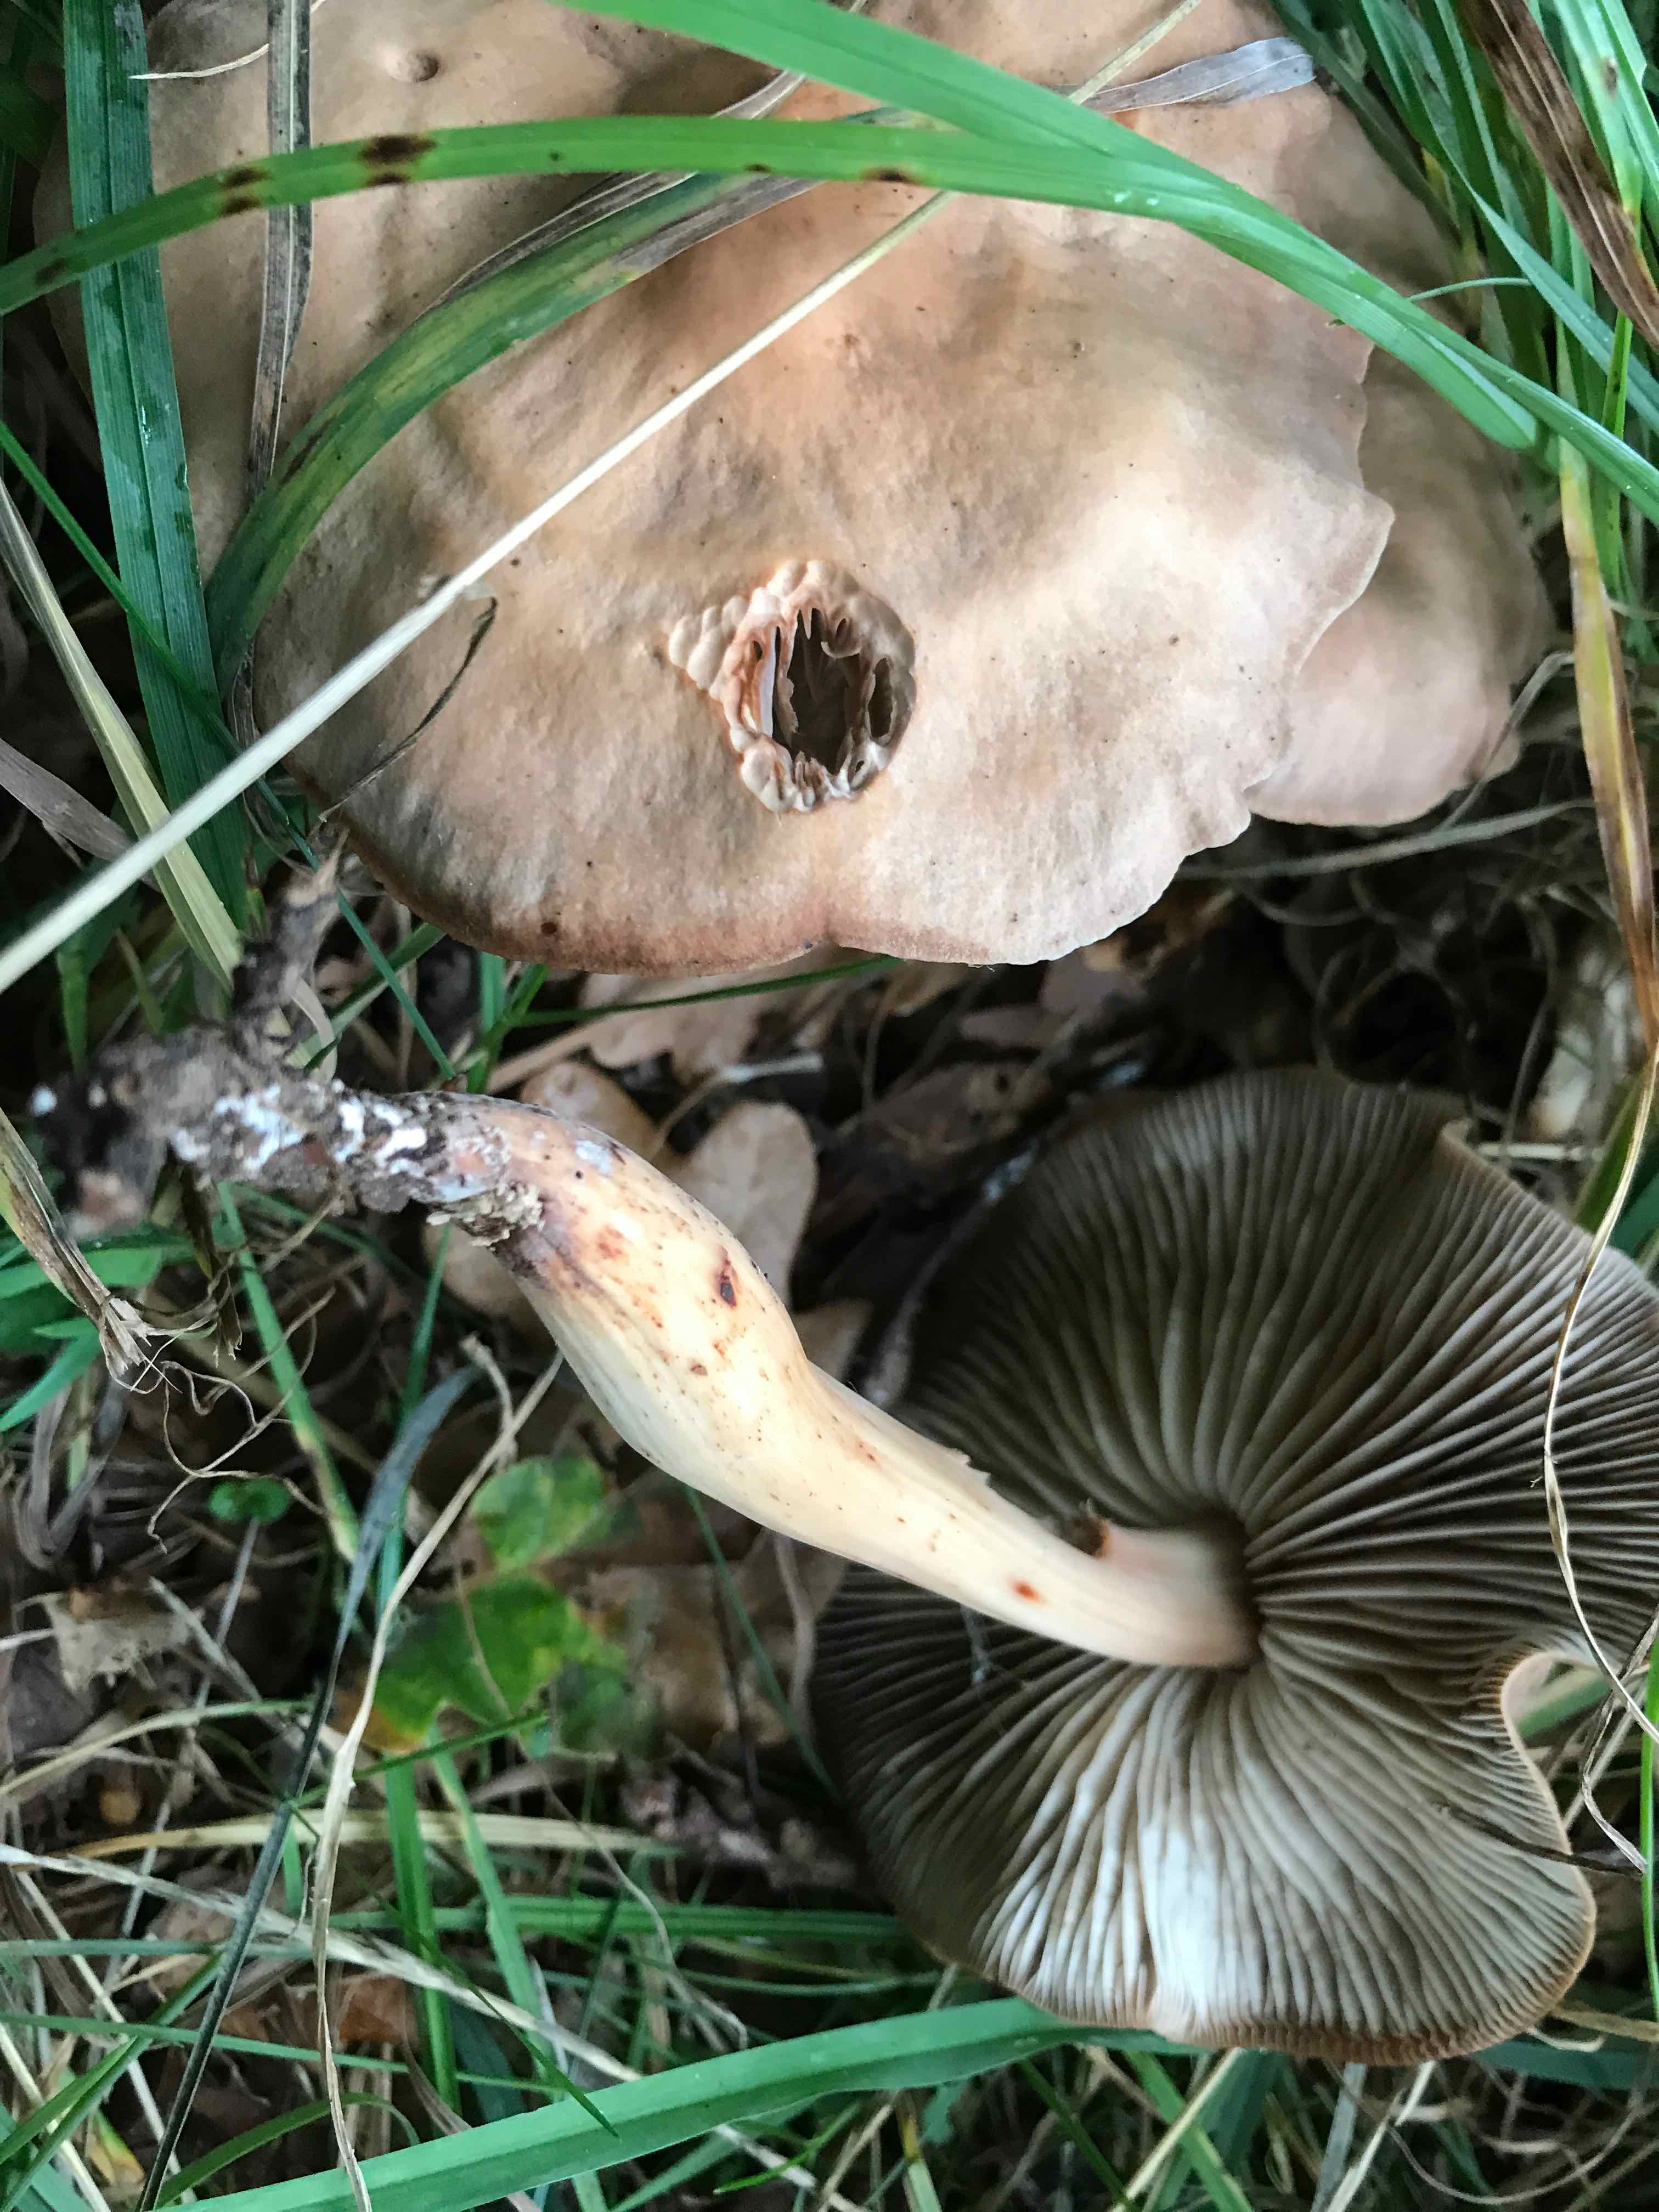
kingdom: Fungi
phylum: Basidiomycota
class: Agaricomycetes
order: Agaricales
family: Omphalotaceae
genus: Gymnopus
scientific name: Gymnopus fusipes
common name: tenstokket fladhat
